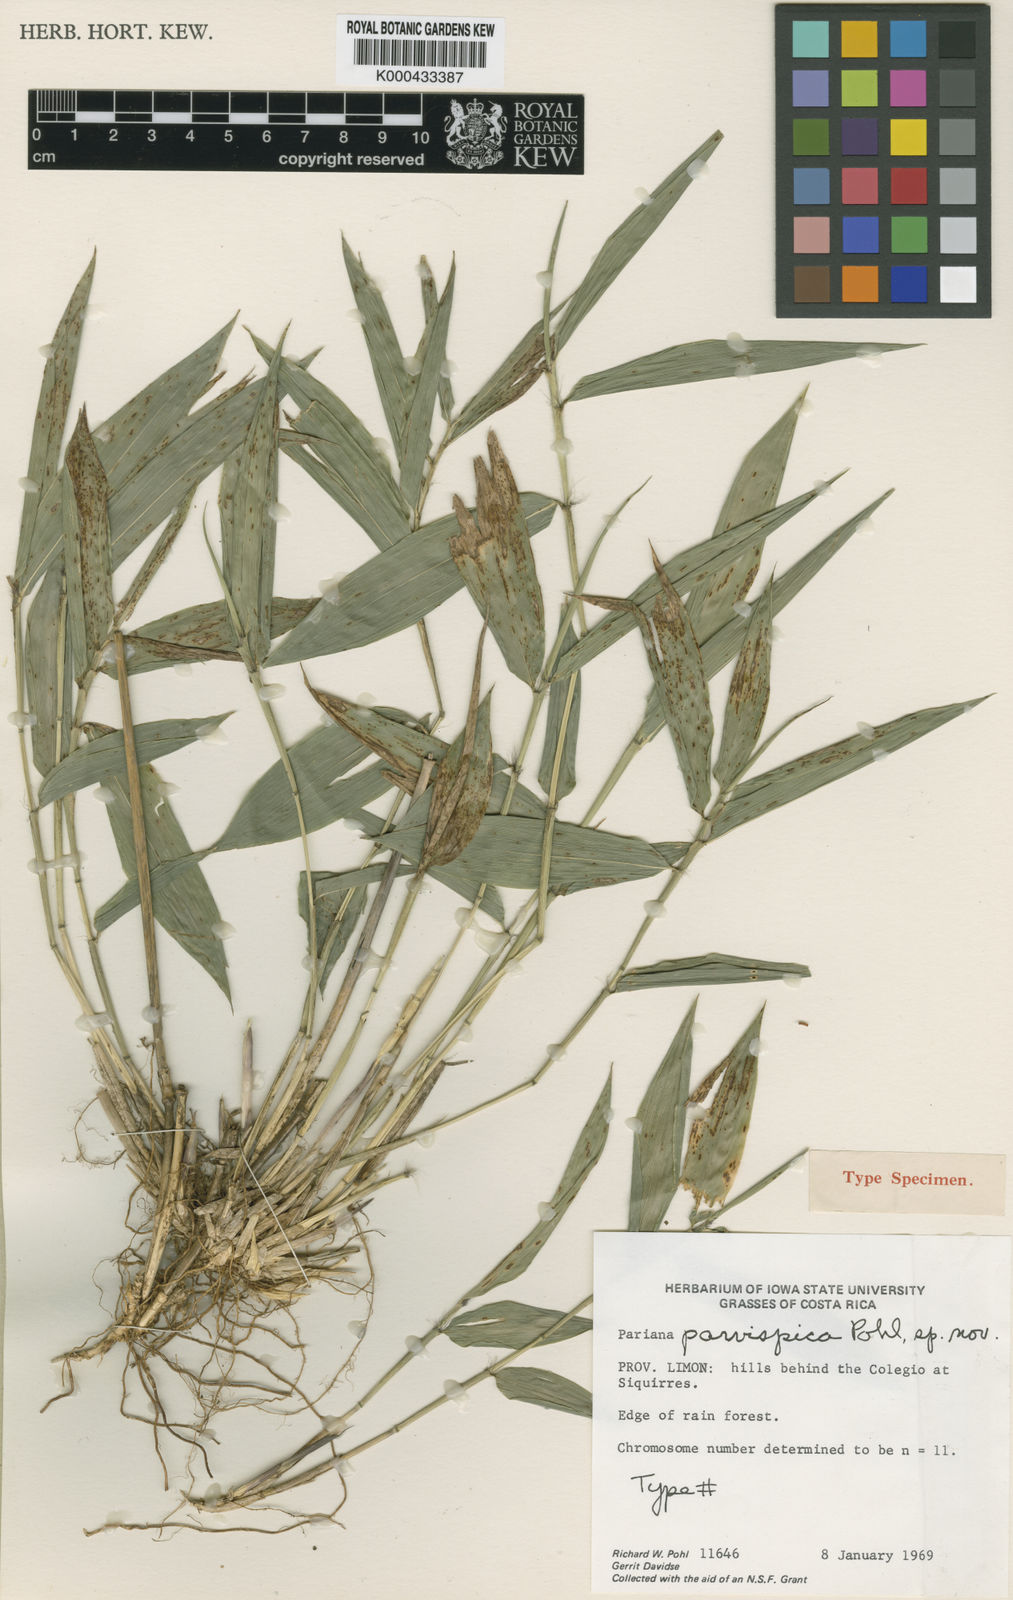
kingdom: Plantae
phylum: Tracheophyta
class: Liliopsida
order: Poales
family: Poaceae
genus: Pariana
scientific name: Pariana parvispica
